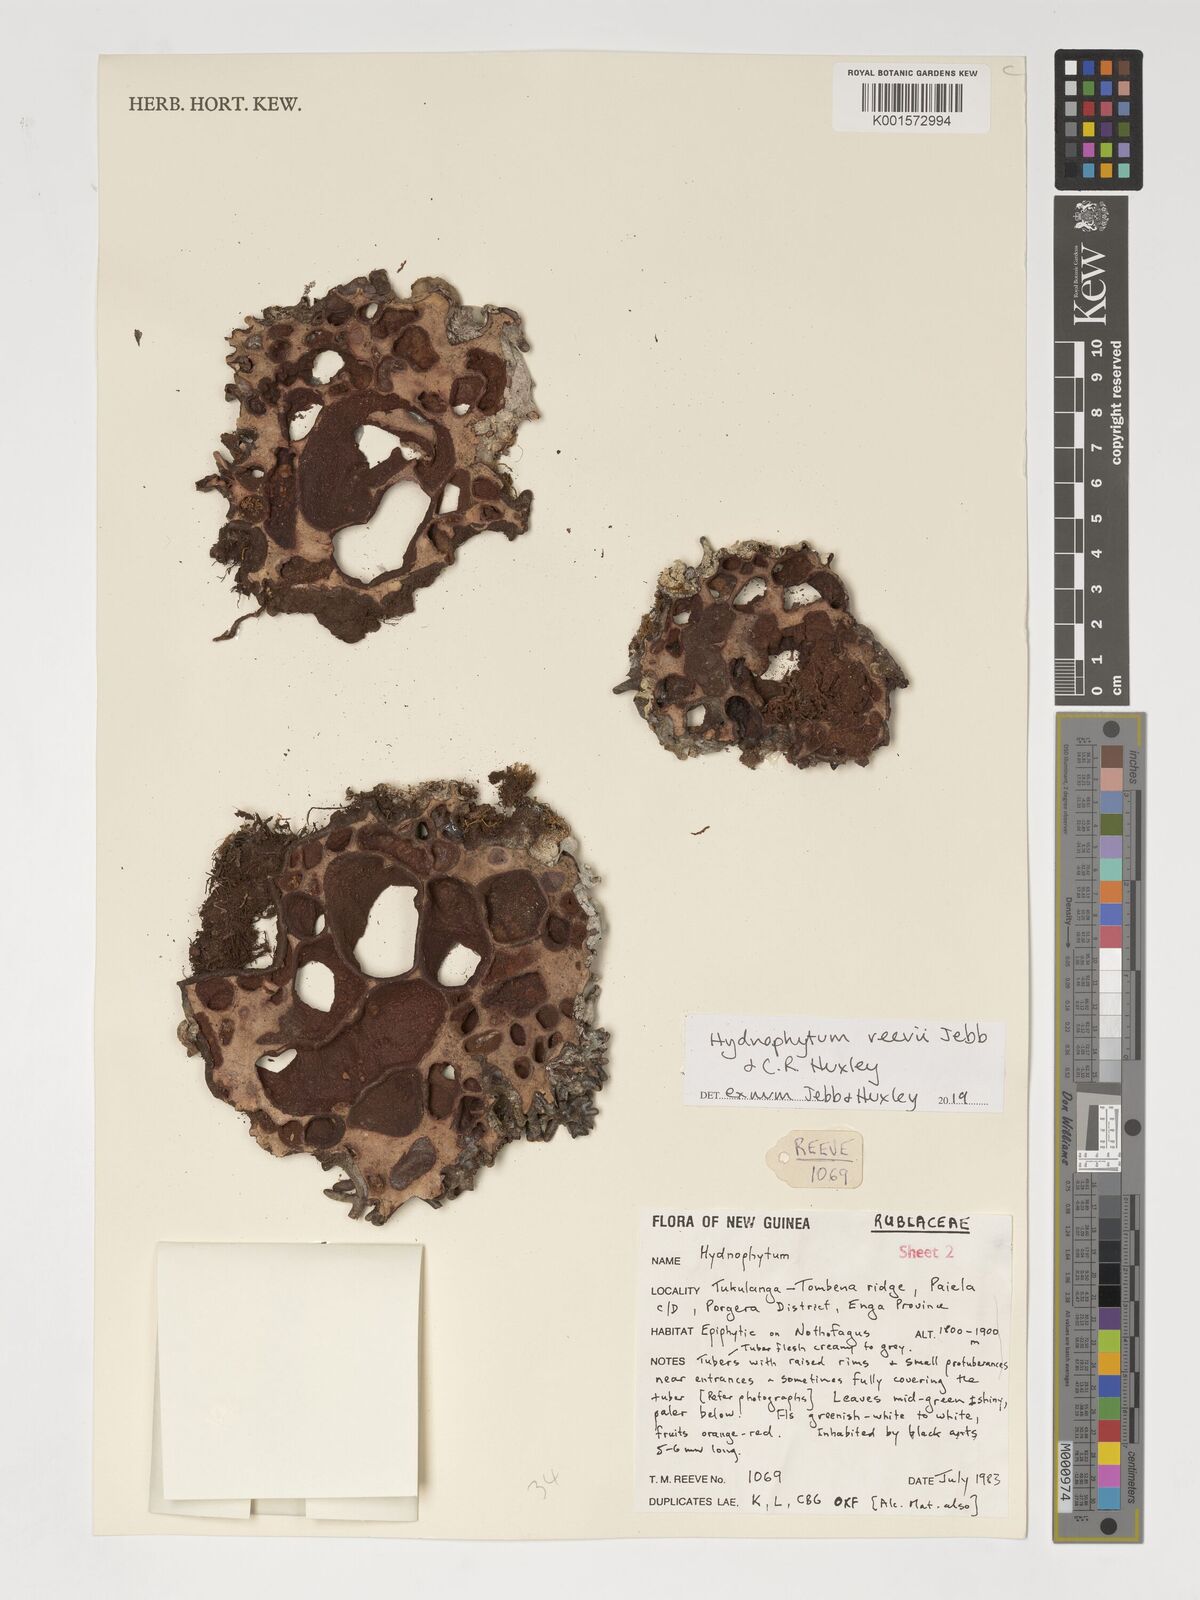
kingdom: Plantae
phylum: Tracheophyta
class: Magnoliopsida
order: Gentianales
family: Rubiaceae
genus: Hydnophytum
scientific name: Hydnophytum reevii
